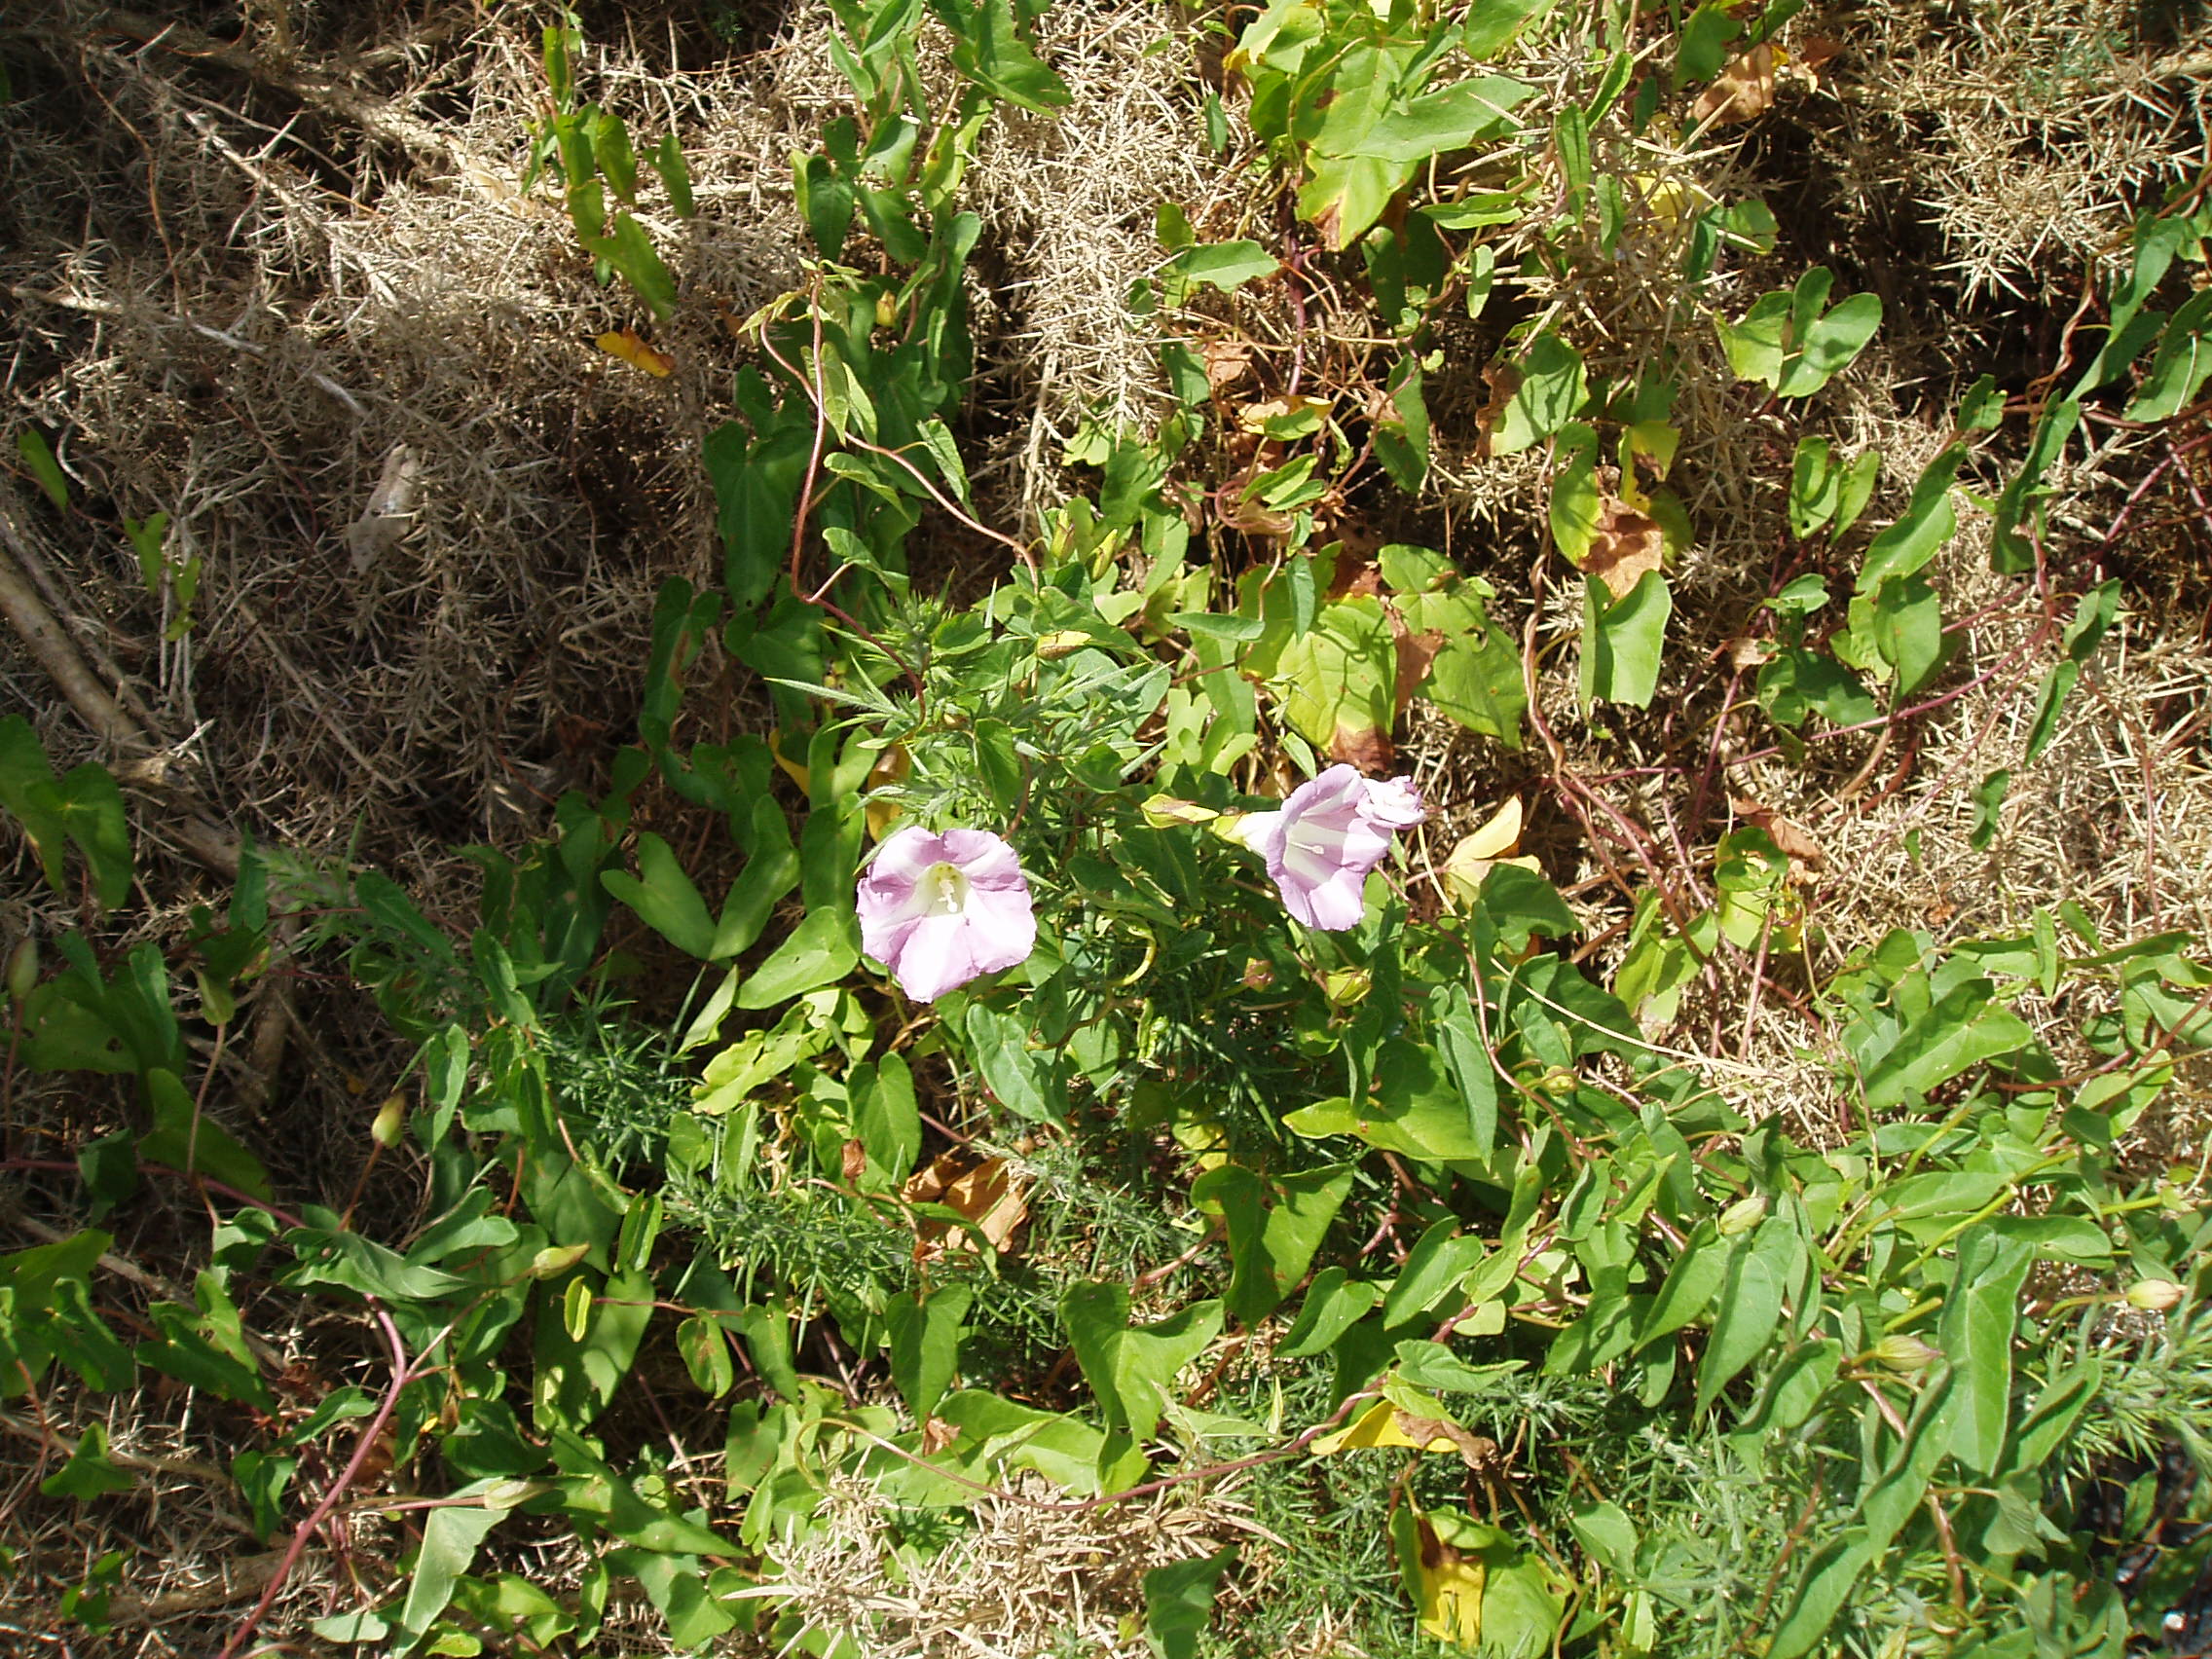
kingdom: Plantae
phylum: Tracheophyta
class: Magnoliopsida
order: Solanales
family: Convolvulaceae
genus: Calystegia
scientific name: Calystegia sepium
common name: Hedge bindweed
